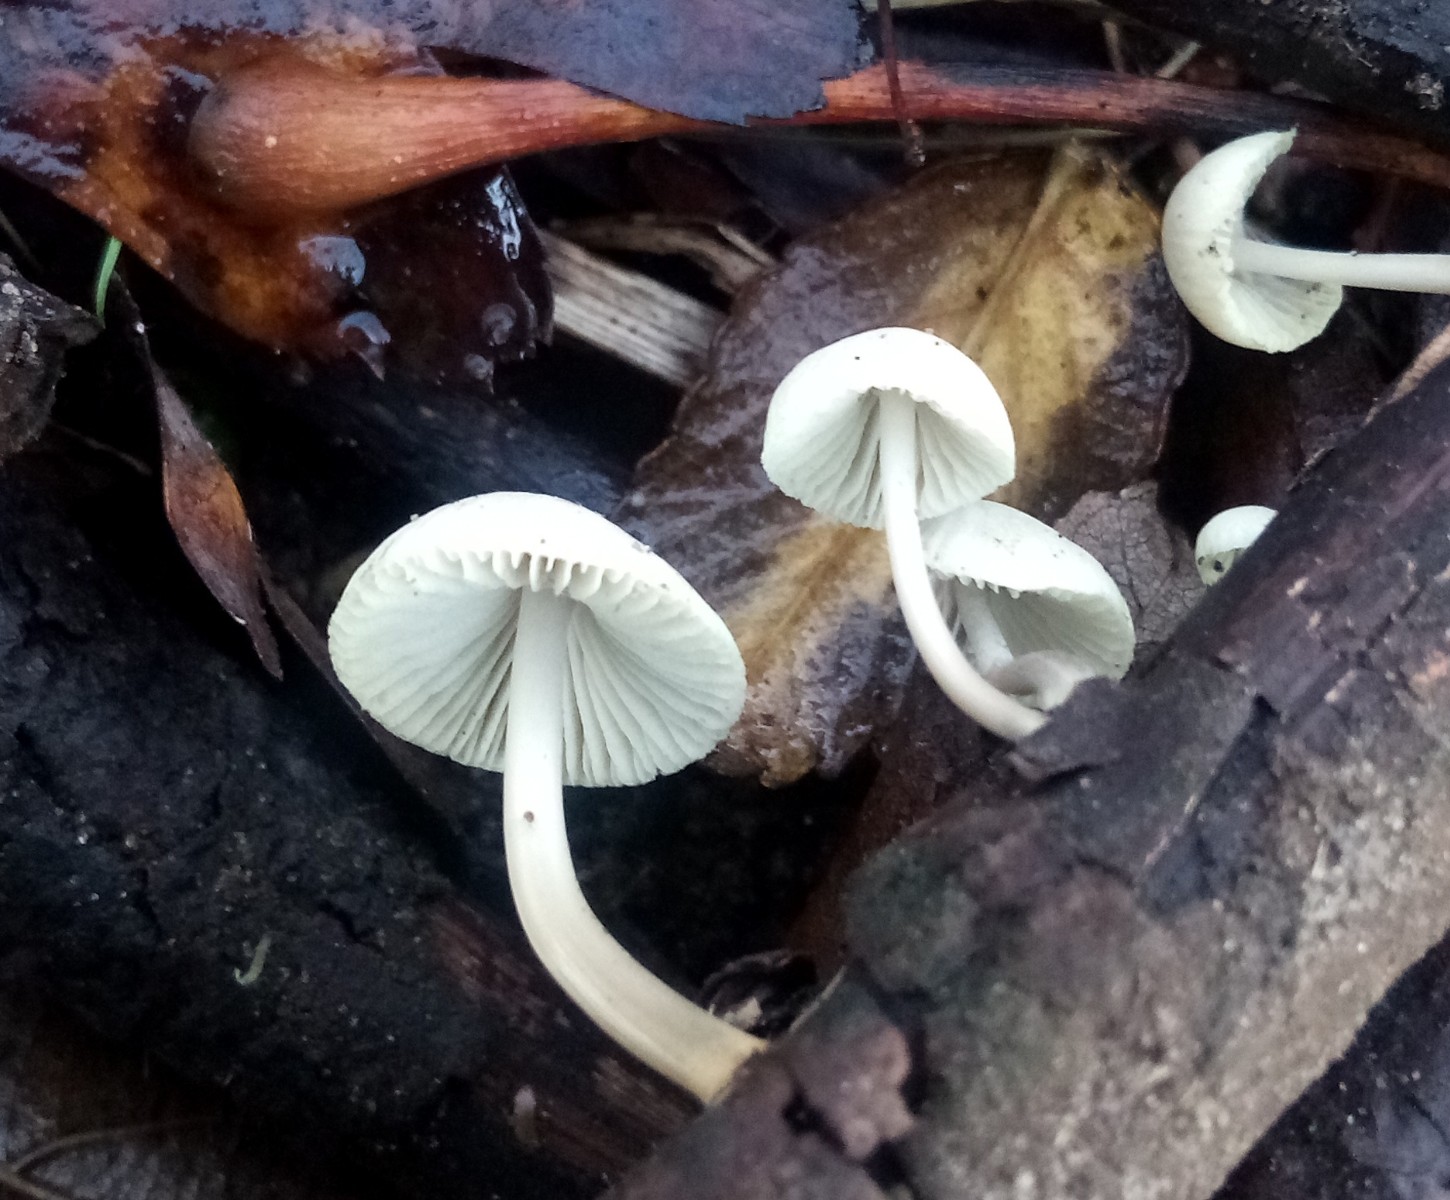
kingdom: Fungi
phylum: Basidiomycota
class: Agaricomycetes
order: Agaricales
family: Mycenaceae
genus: Mycena
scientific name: Mycena arcangeliana
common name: oliven-huesvamp
